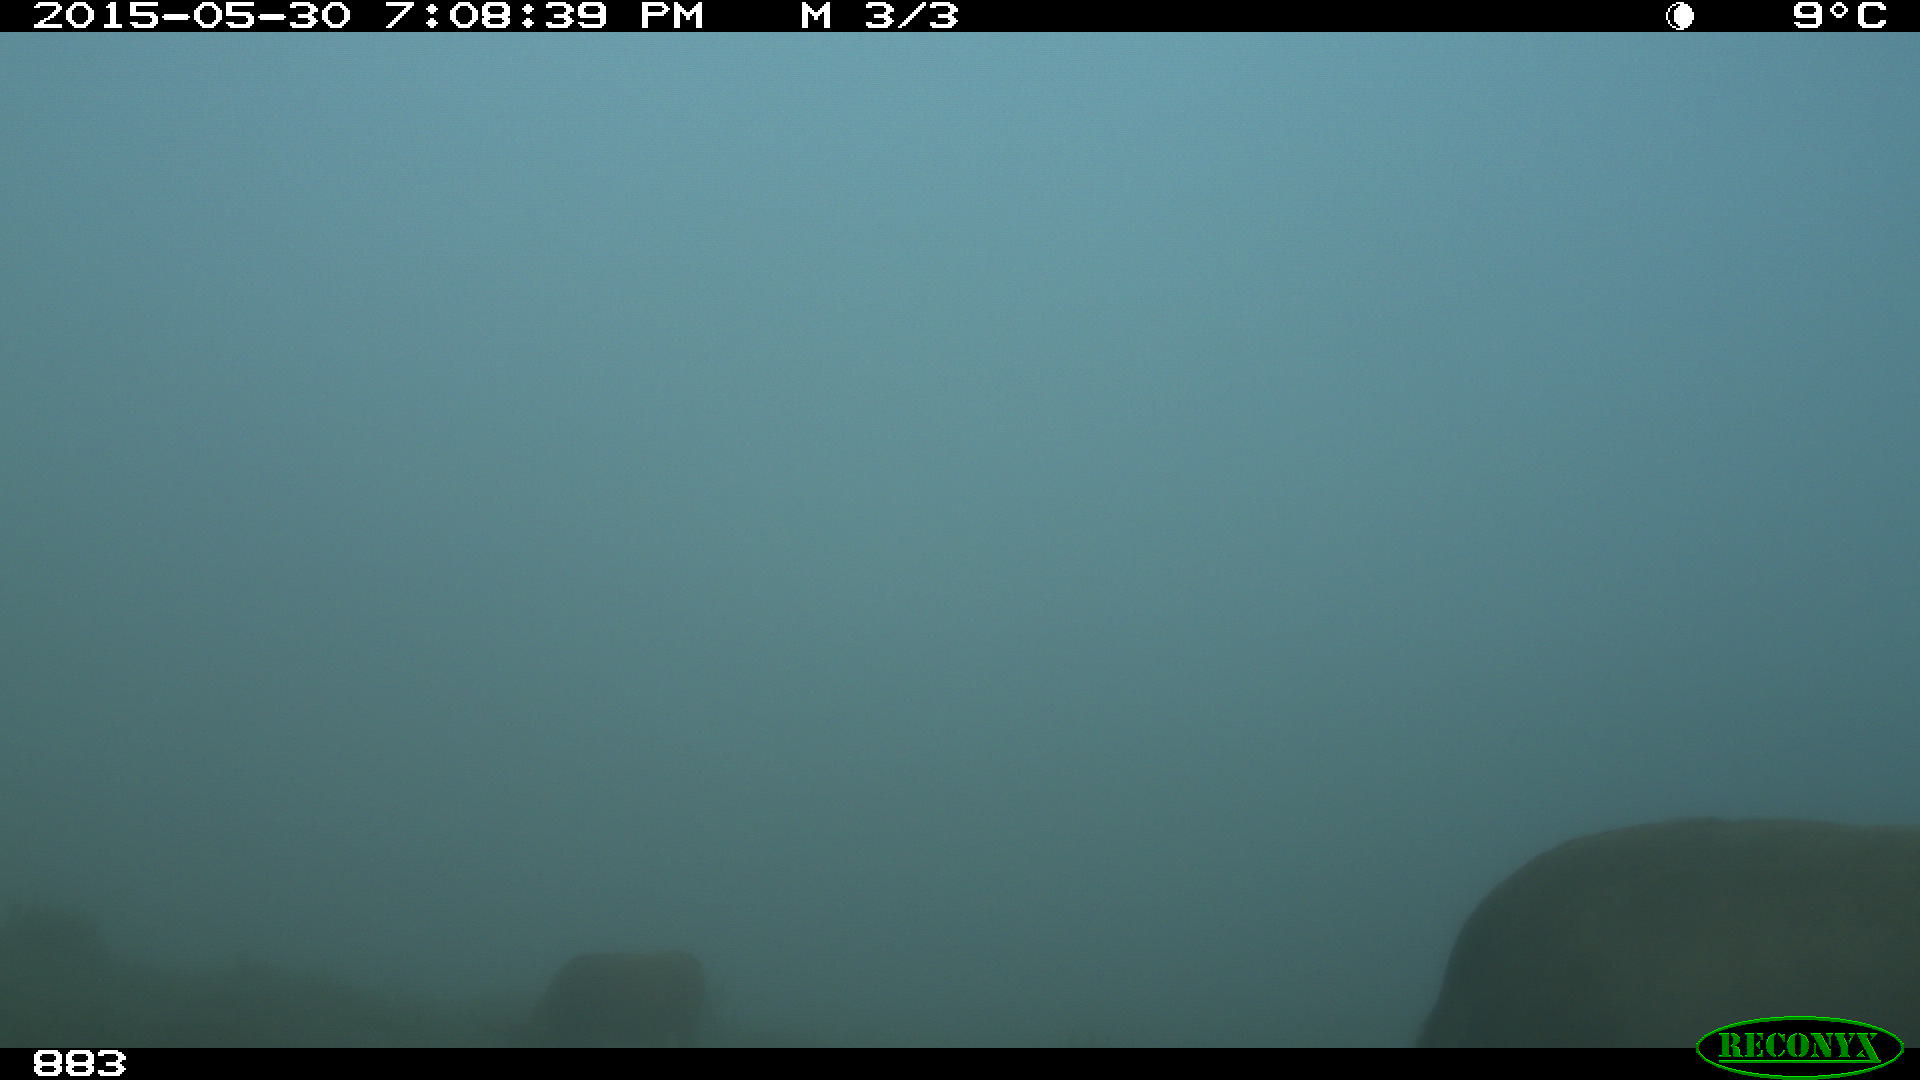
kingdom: Animalia
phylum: Chordata
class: Mammalia
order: Artiodactyla
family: Bovidae
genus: Bos
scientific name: Bos taurus
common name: Domesticated cattle
